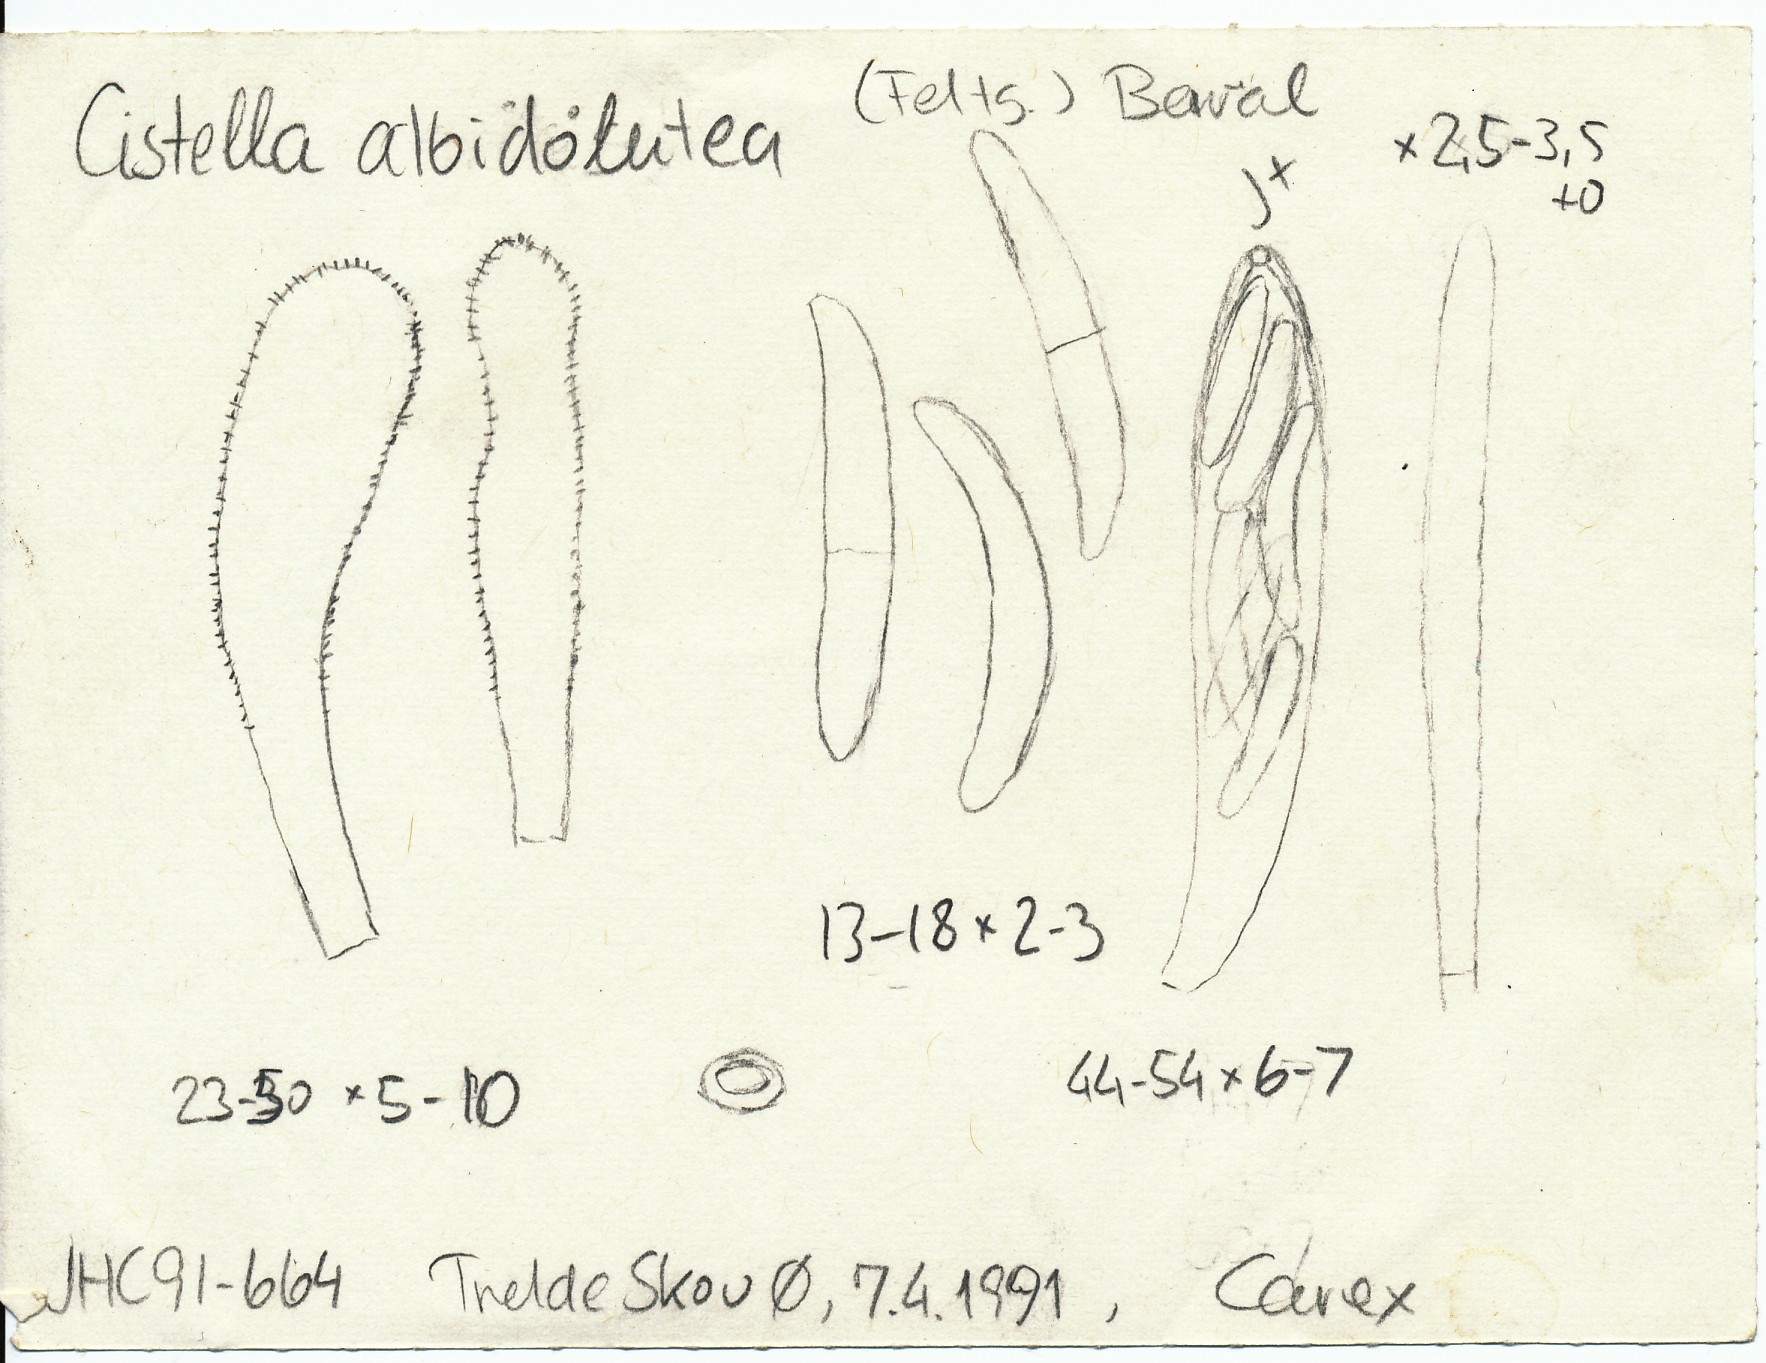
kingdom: Fungi
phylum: Ascomycota
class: Leotiomycetes
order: Helotiales
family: Hyaloscyphaceae
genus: Cistella
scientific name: Cistella albidolutea
